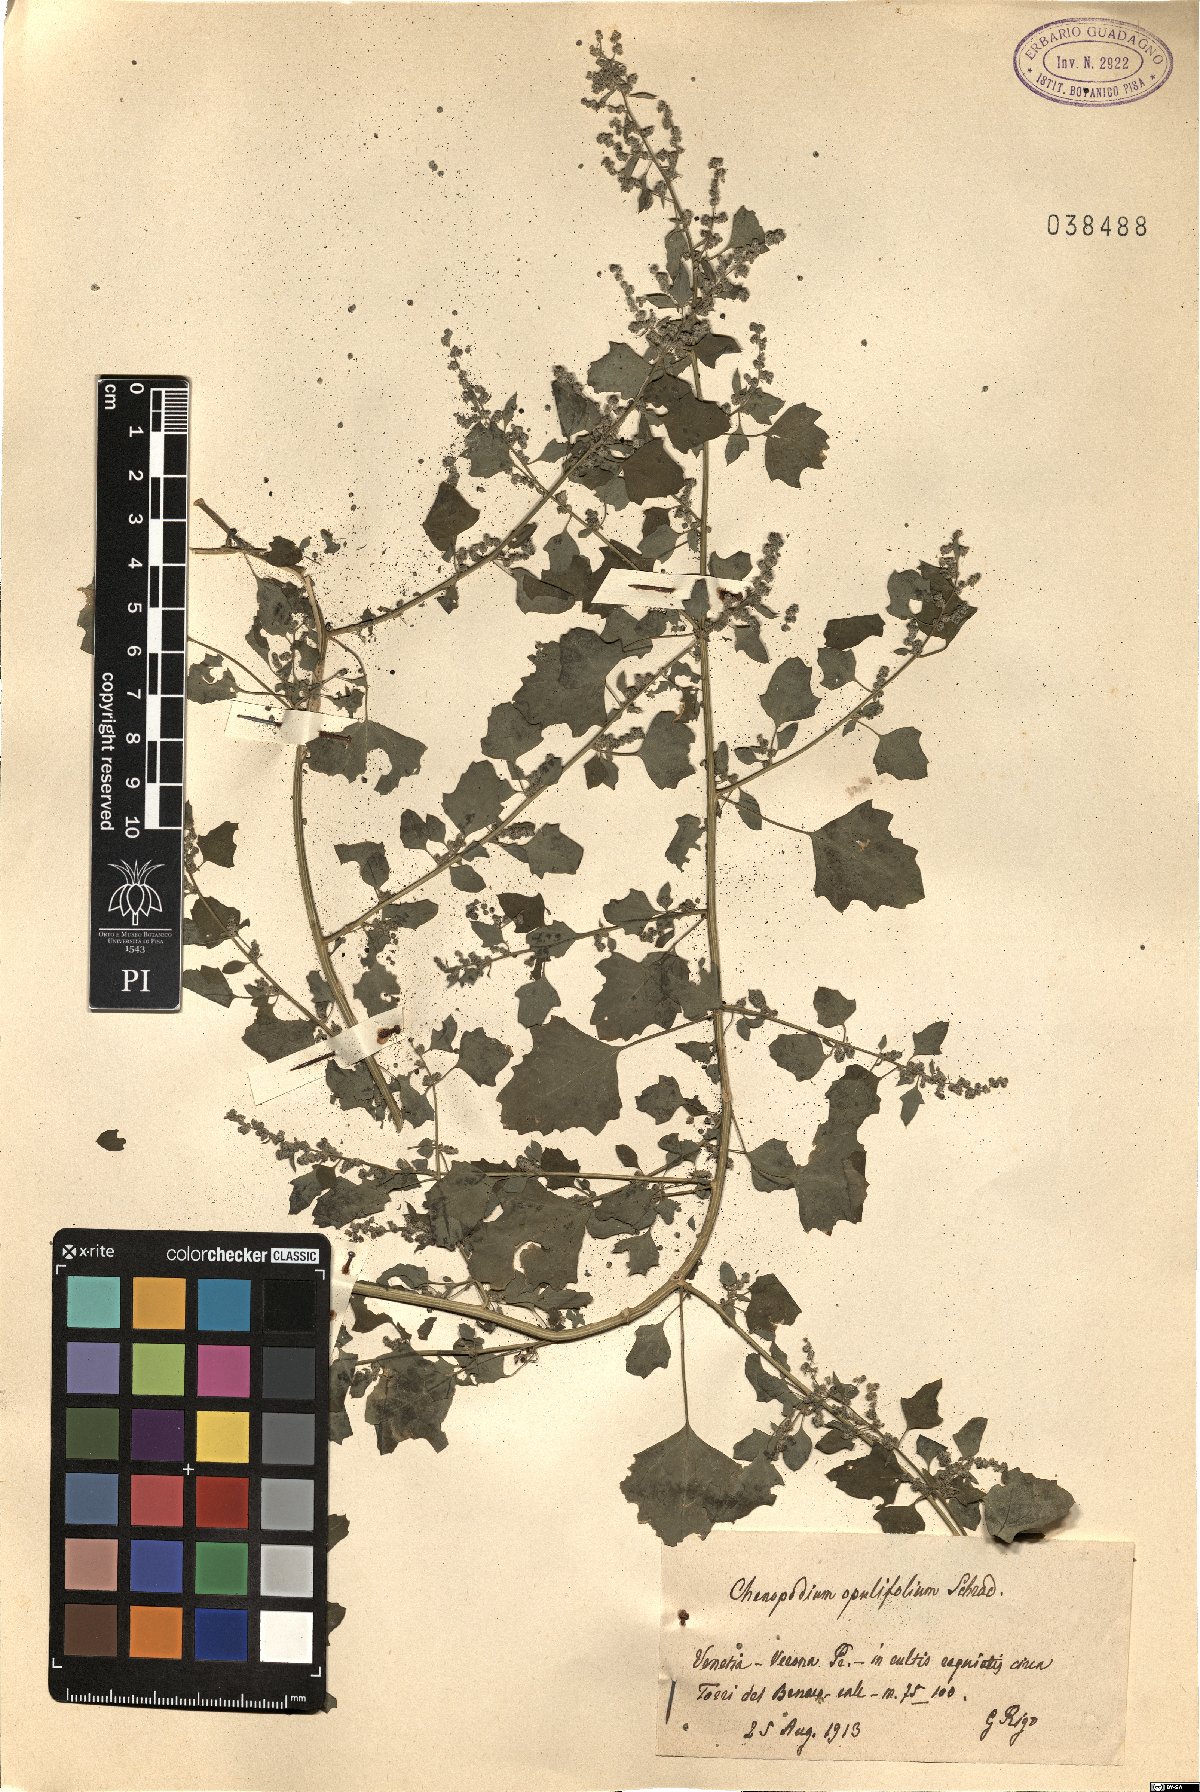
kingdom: Plantae
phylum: Tracheophyta
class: Magnoliopsida
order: Caryophyllales
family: Amaranthaceae
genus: Chenopodium
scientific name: Chenopodium opulifolium
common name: Grey goosefoot
